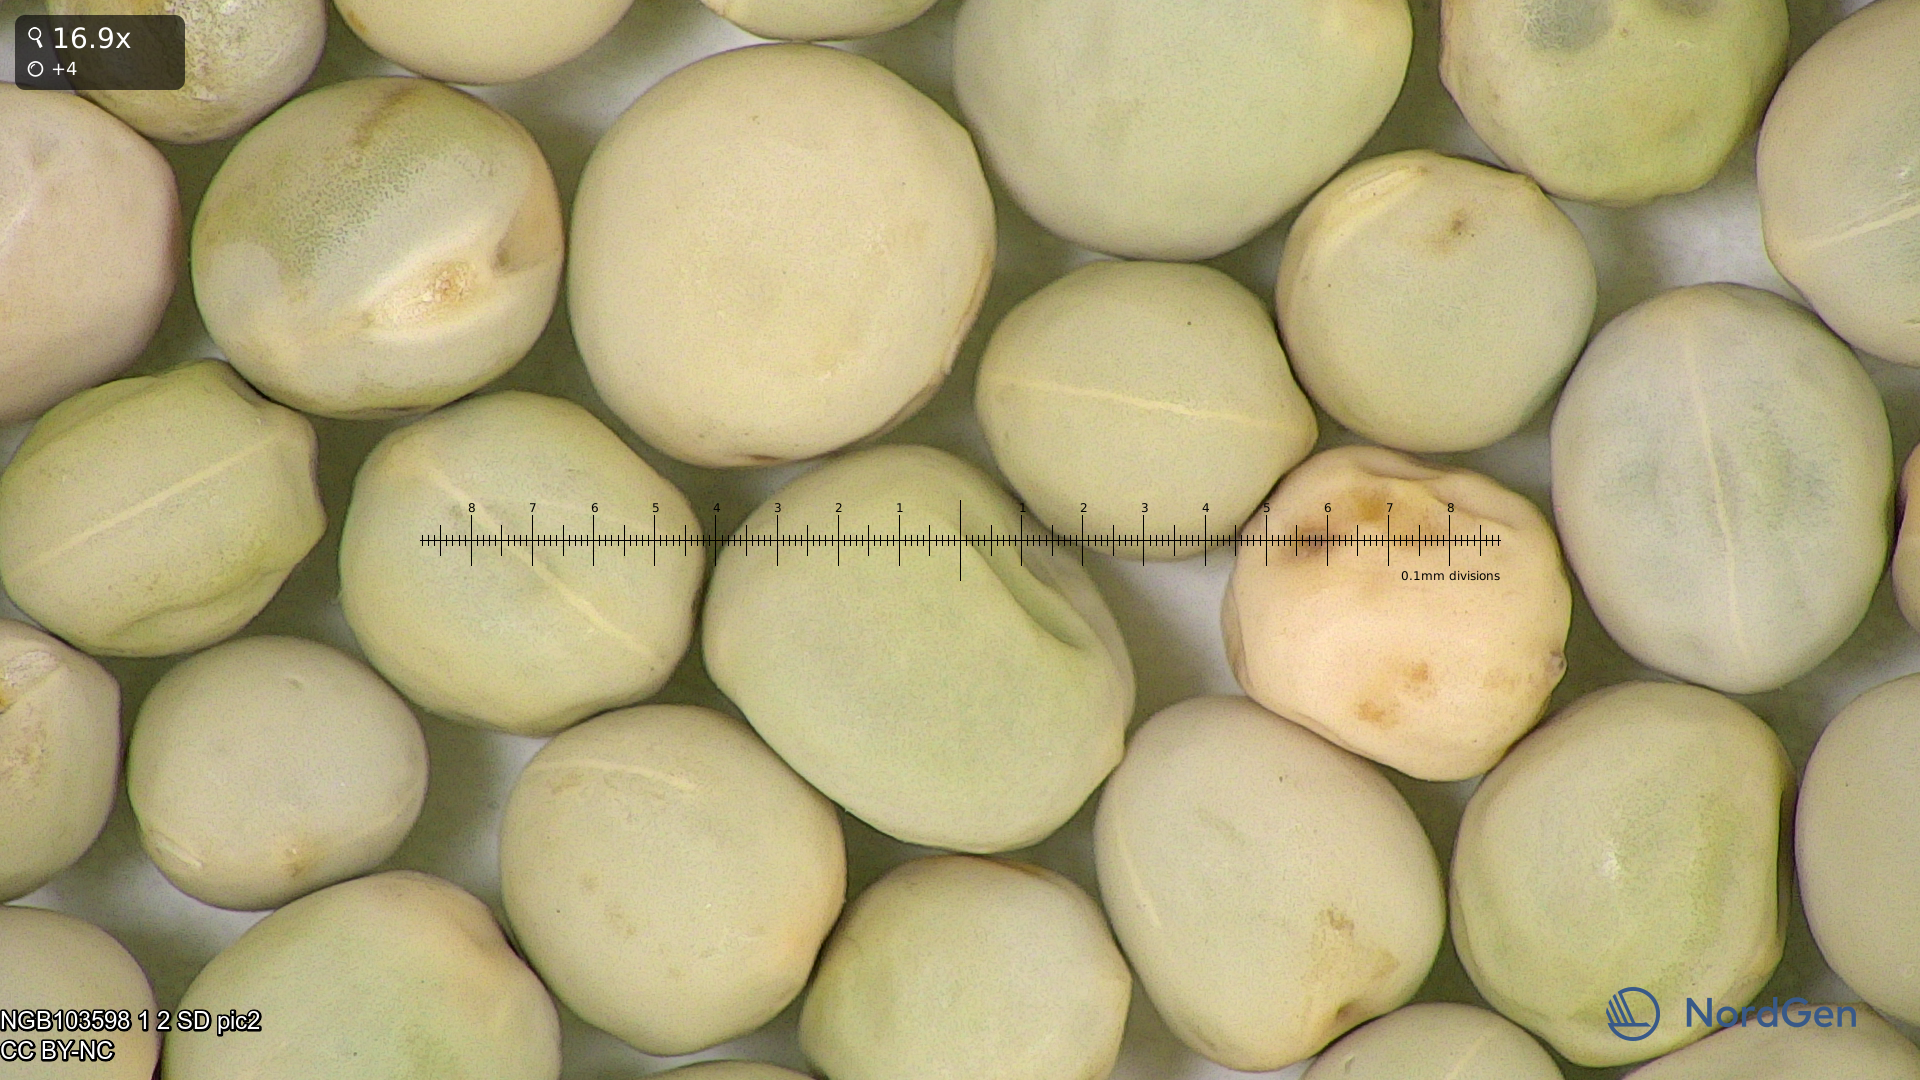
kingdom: Plantae
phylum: Tracheophyta
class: Magnoliopsida
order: Fabales
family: Fabaceae
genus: Lathyrus
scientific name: Lathyrus oleraceus
